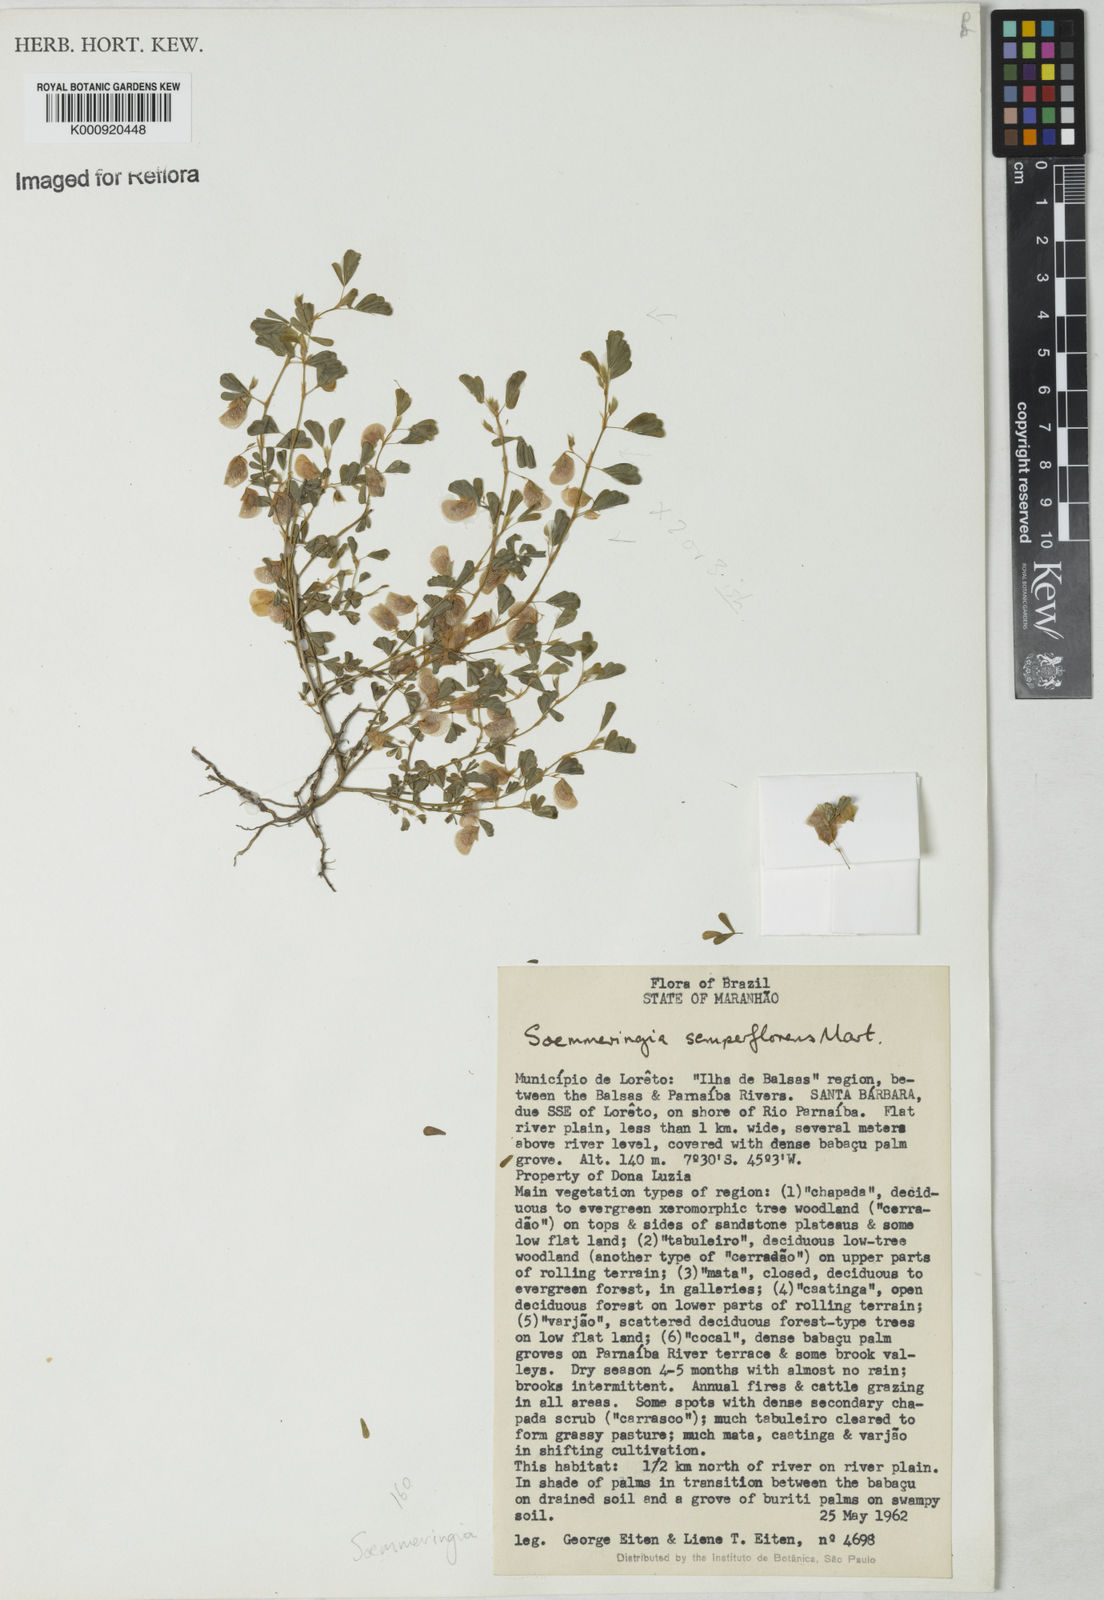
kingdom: Plantae
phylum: Tracheophyta
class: Magnoliopsida
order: Fabales
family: Fabaceae
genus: Soemmeringia
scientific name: Soemmeringia
